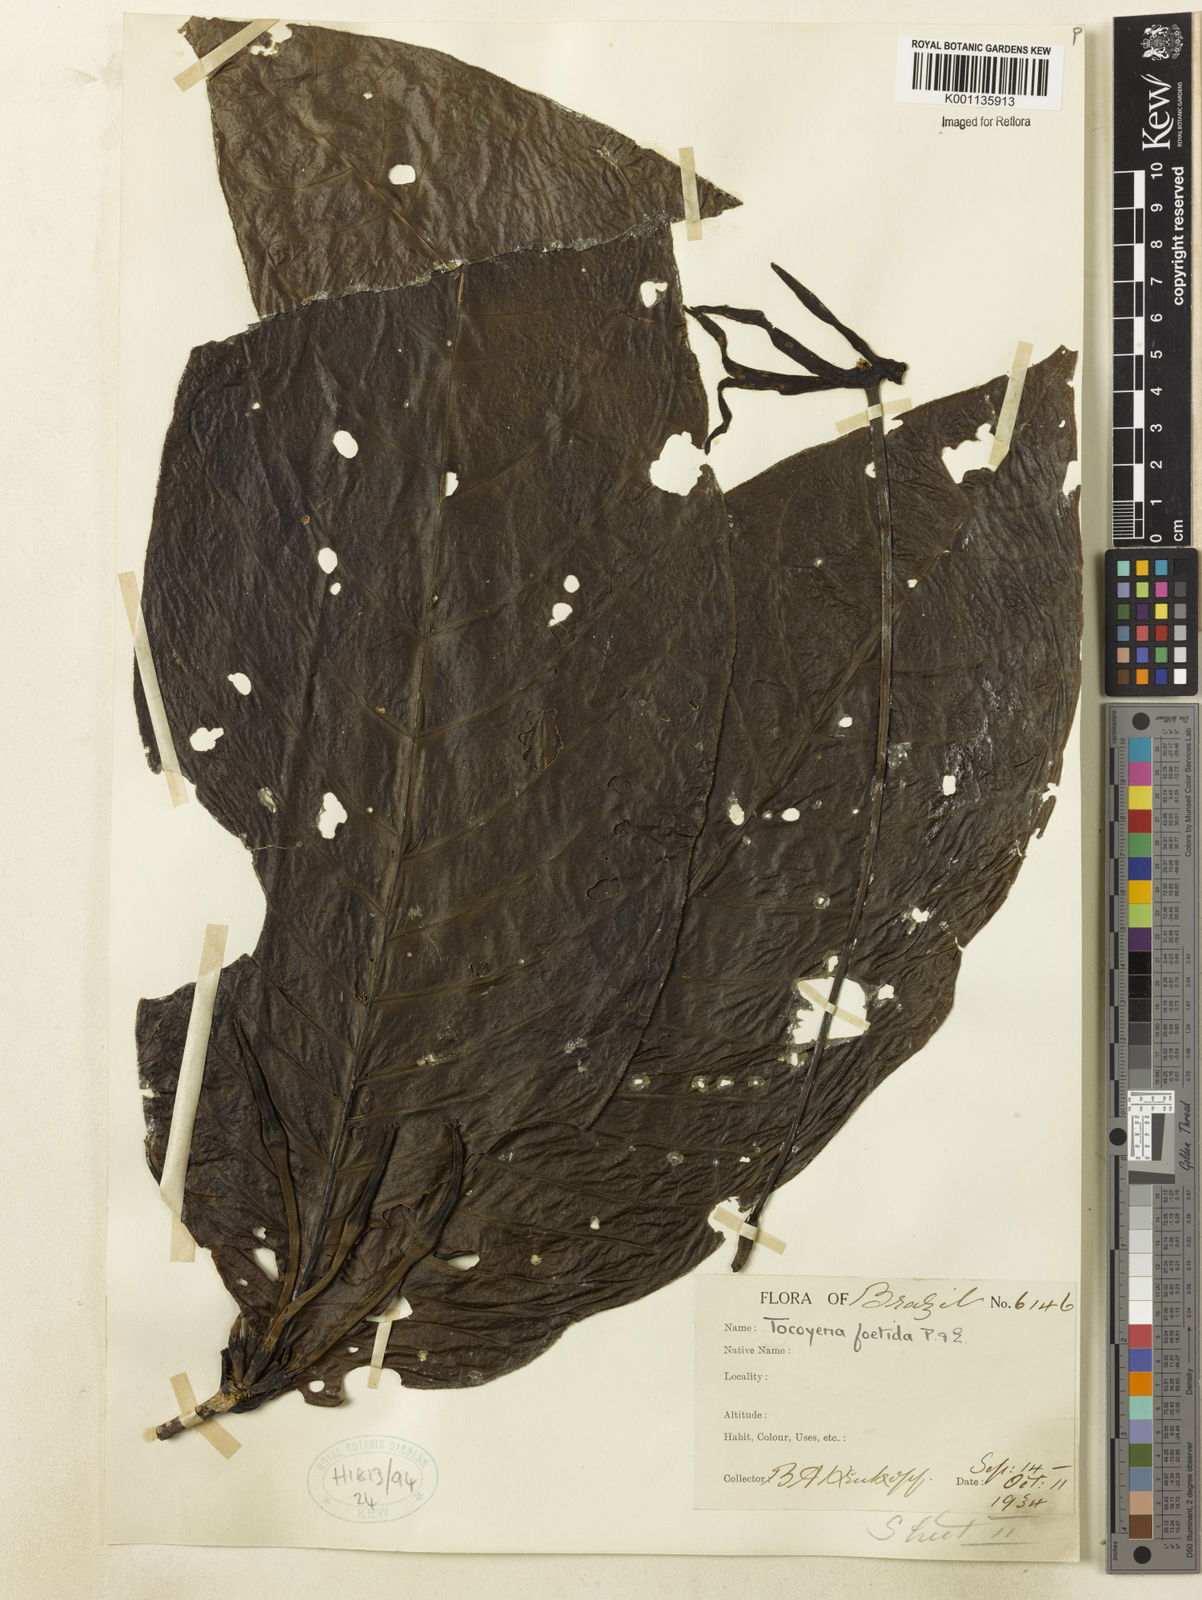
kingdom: Plantae
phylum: Tracheophyta
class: Magnoliopsida
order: Gentianales
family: Rubiaceae
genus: Tocoyena
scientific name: Tocoyena foetida
